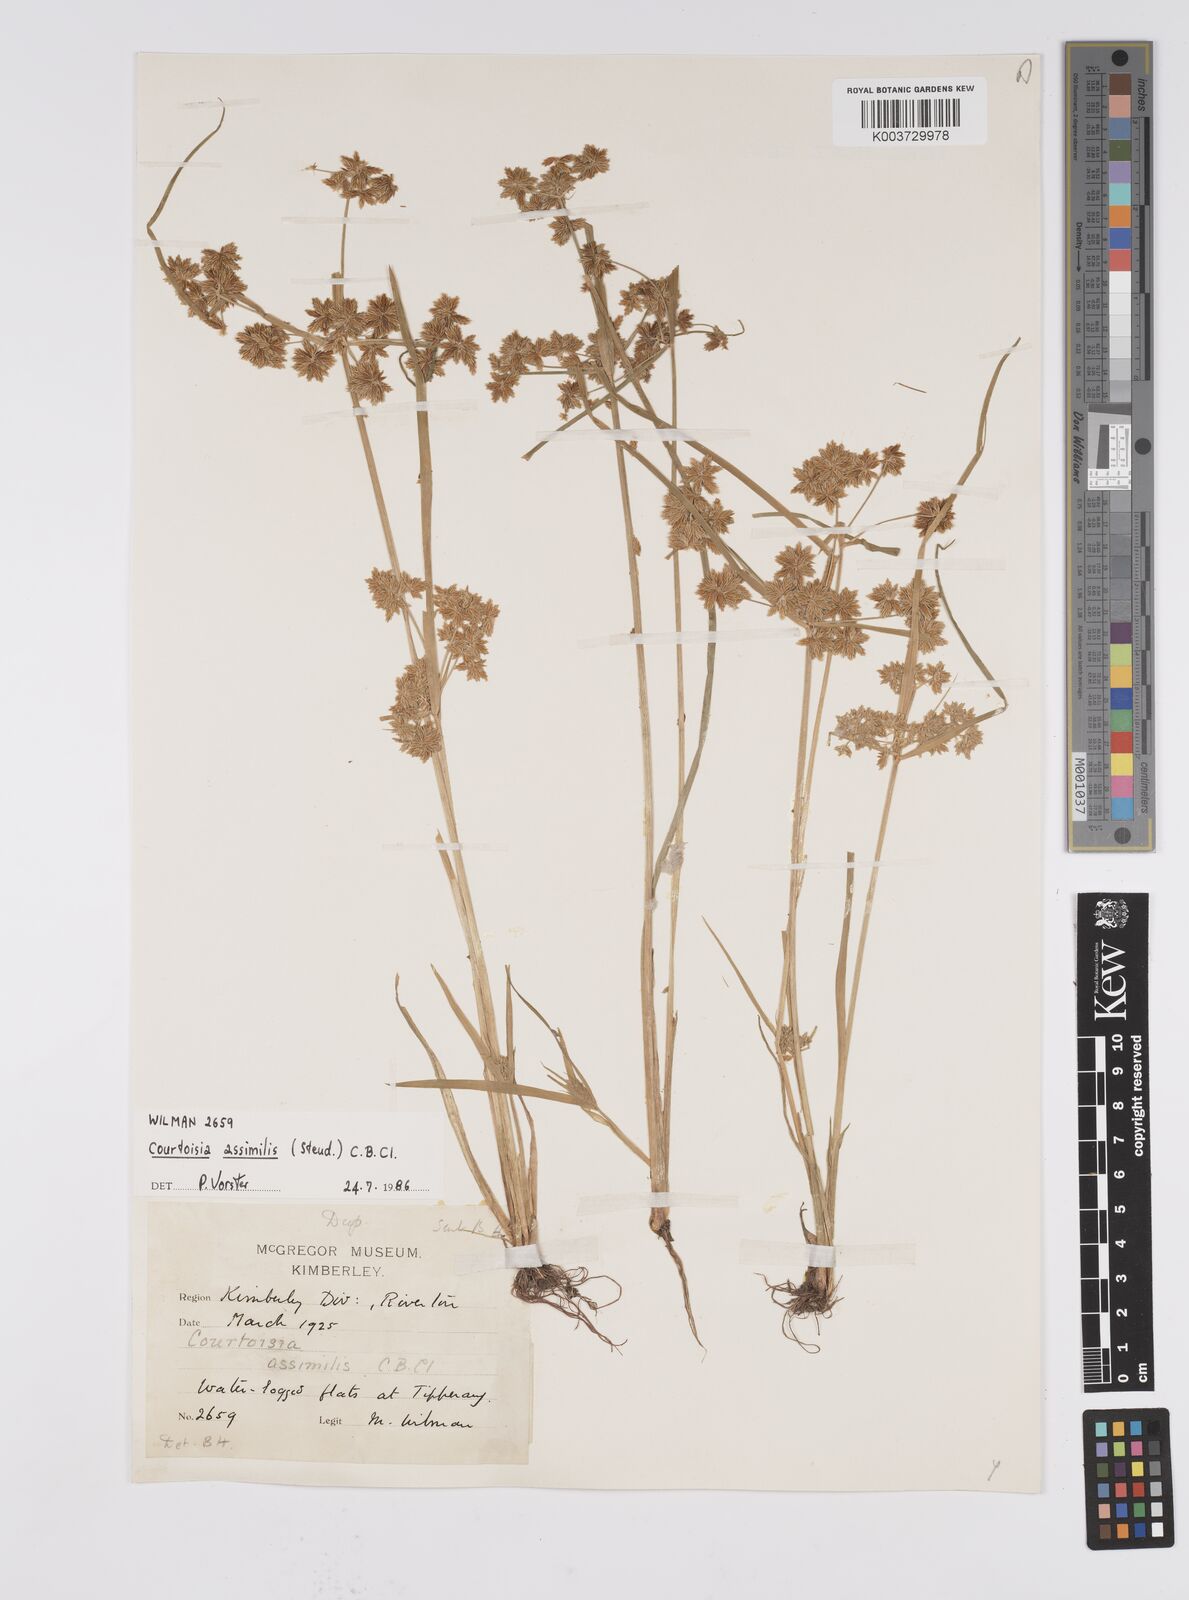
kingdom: Plantae
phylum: Tracheophyta
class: Liliopsida
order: Poales
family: Cyperaceae
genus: Cyperus
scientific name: Cyperus assimilis
